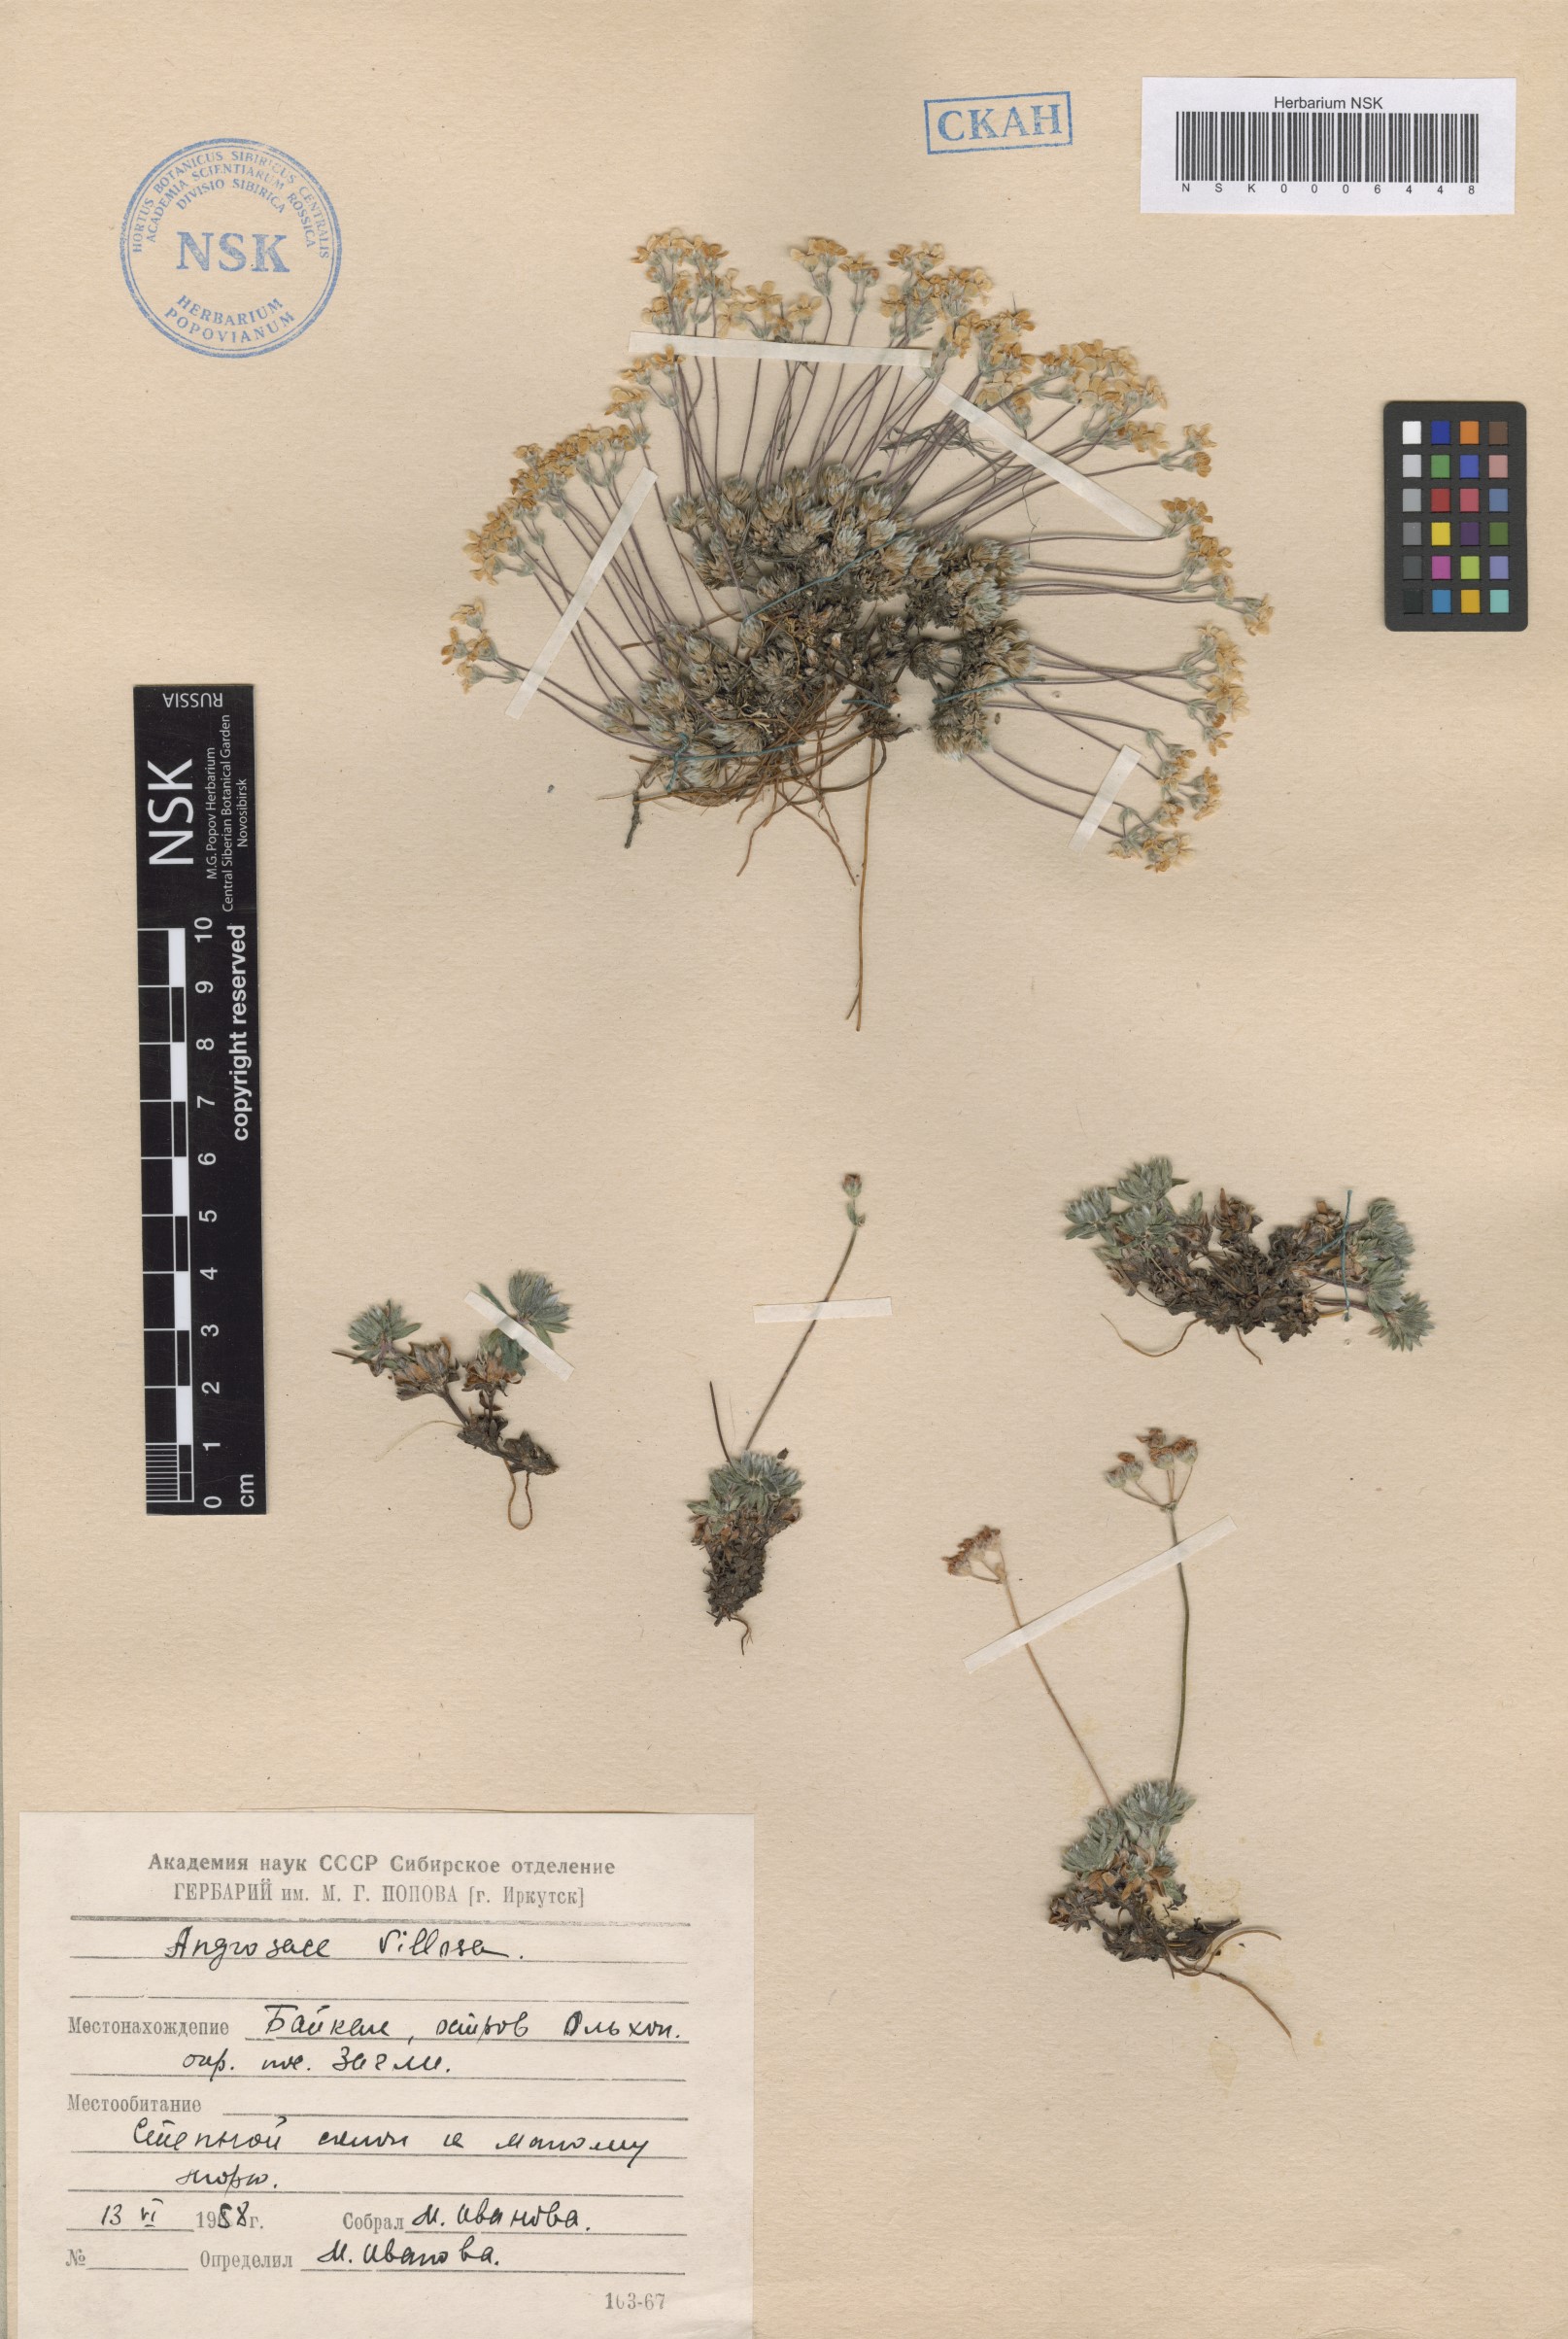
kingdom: Plantae
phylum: Tracheophyta
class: Magnoliopsida
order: Ericales
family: Primulaceae
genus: Androsace
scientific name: Androsace incana
